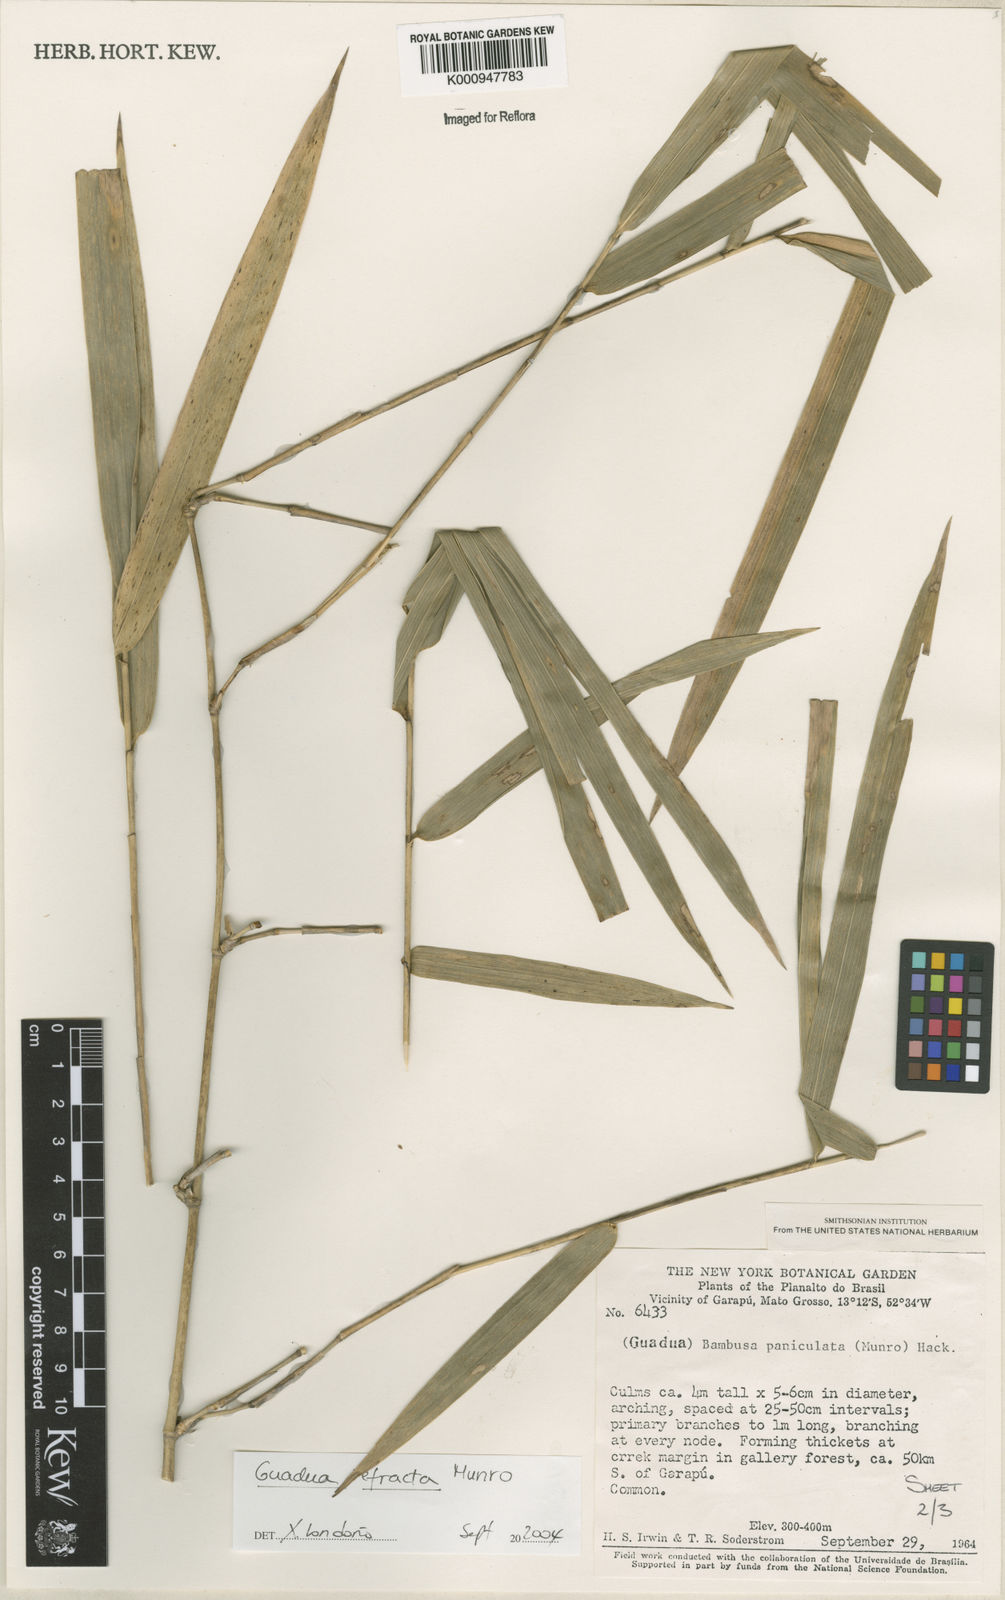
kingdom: Plantae
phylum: Tracheophyta
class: Liliopsida
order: Poales
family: Poaceae
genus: Guadua
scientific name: Guadua
